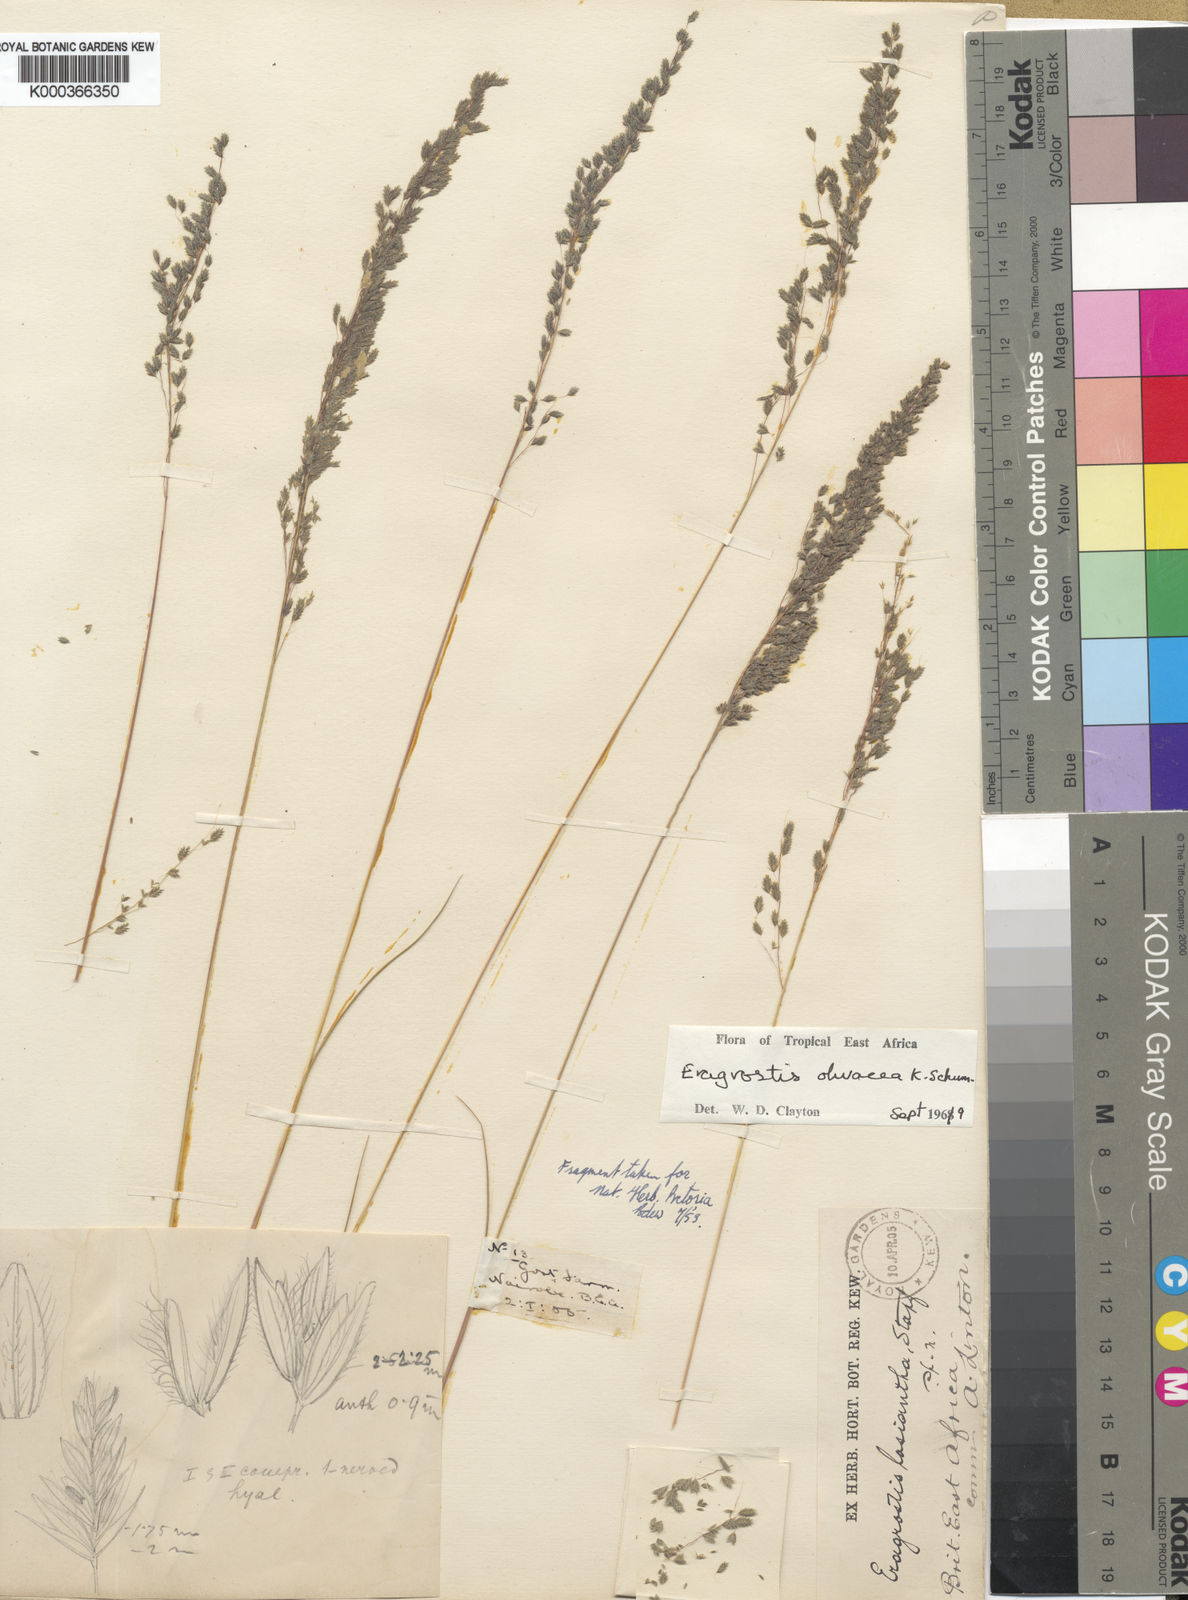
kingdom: Plantae
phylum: Tracheophyta
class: Liliopsida
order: Poales
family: Poaceae
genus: Eragrostis
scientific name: Eragrostis olivacea
